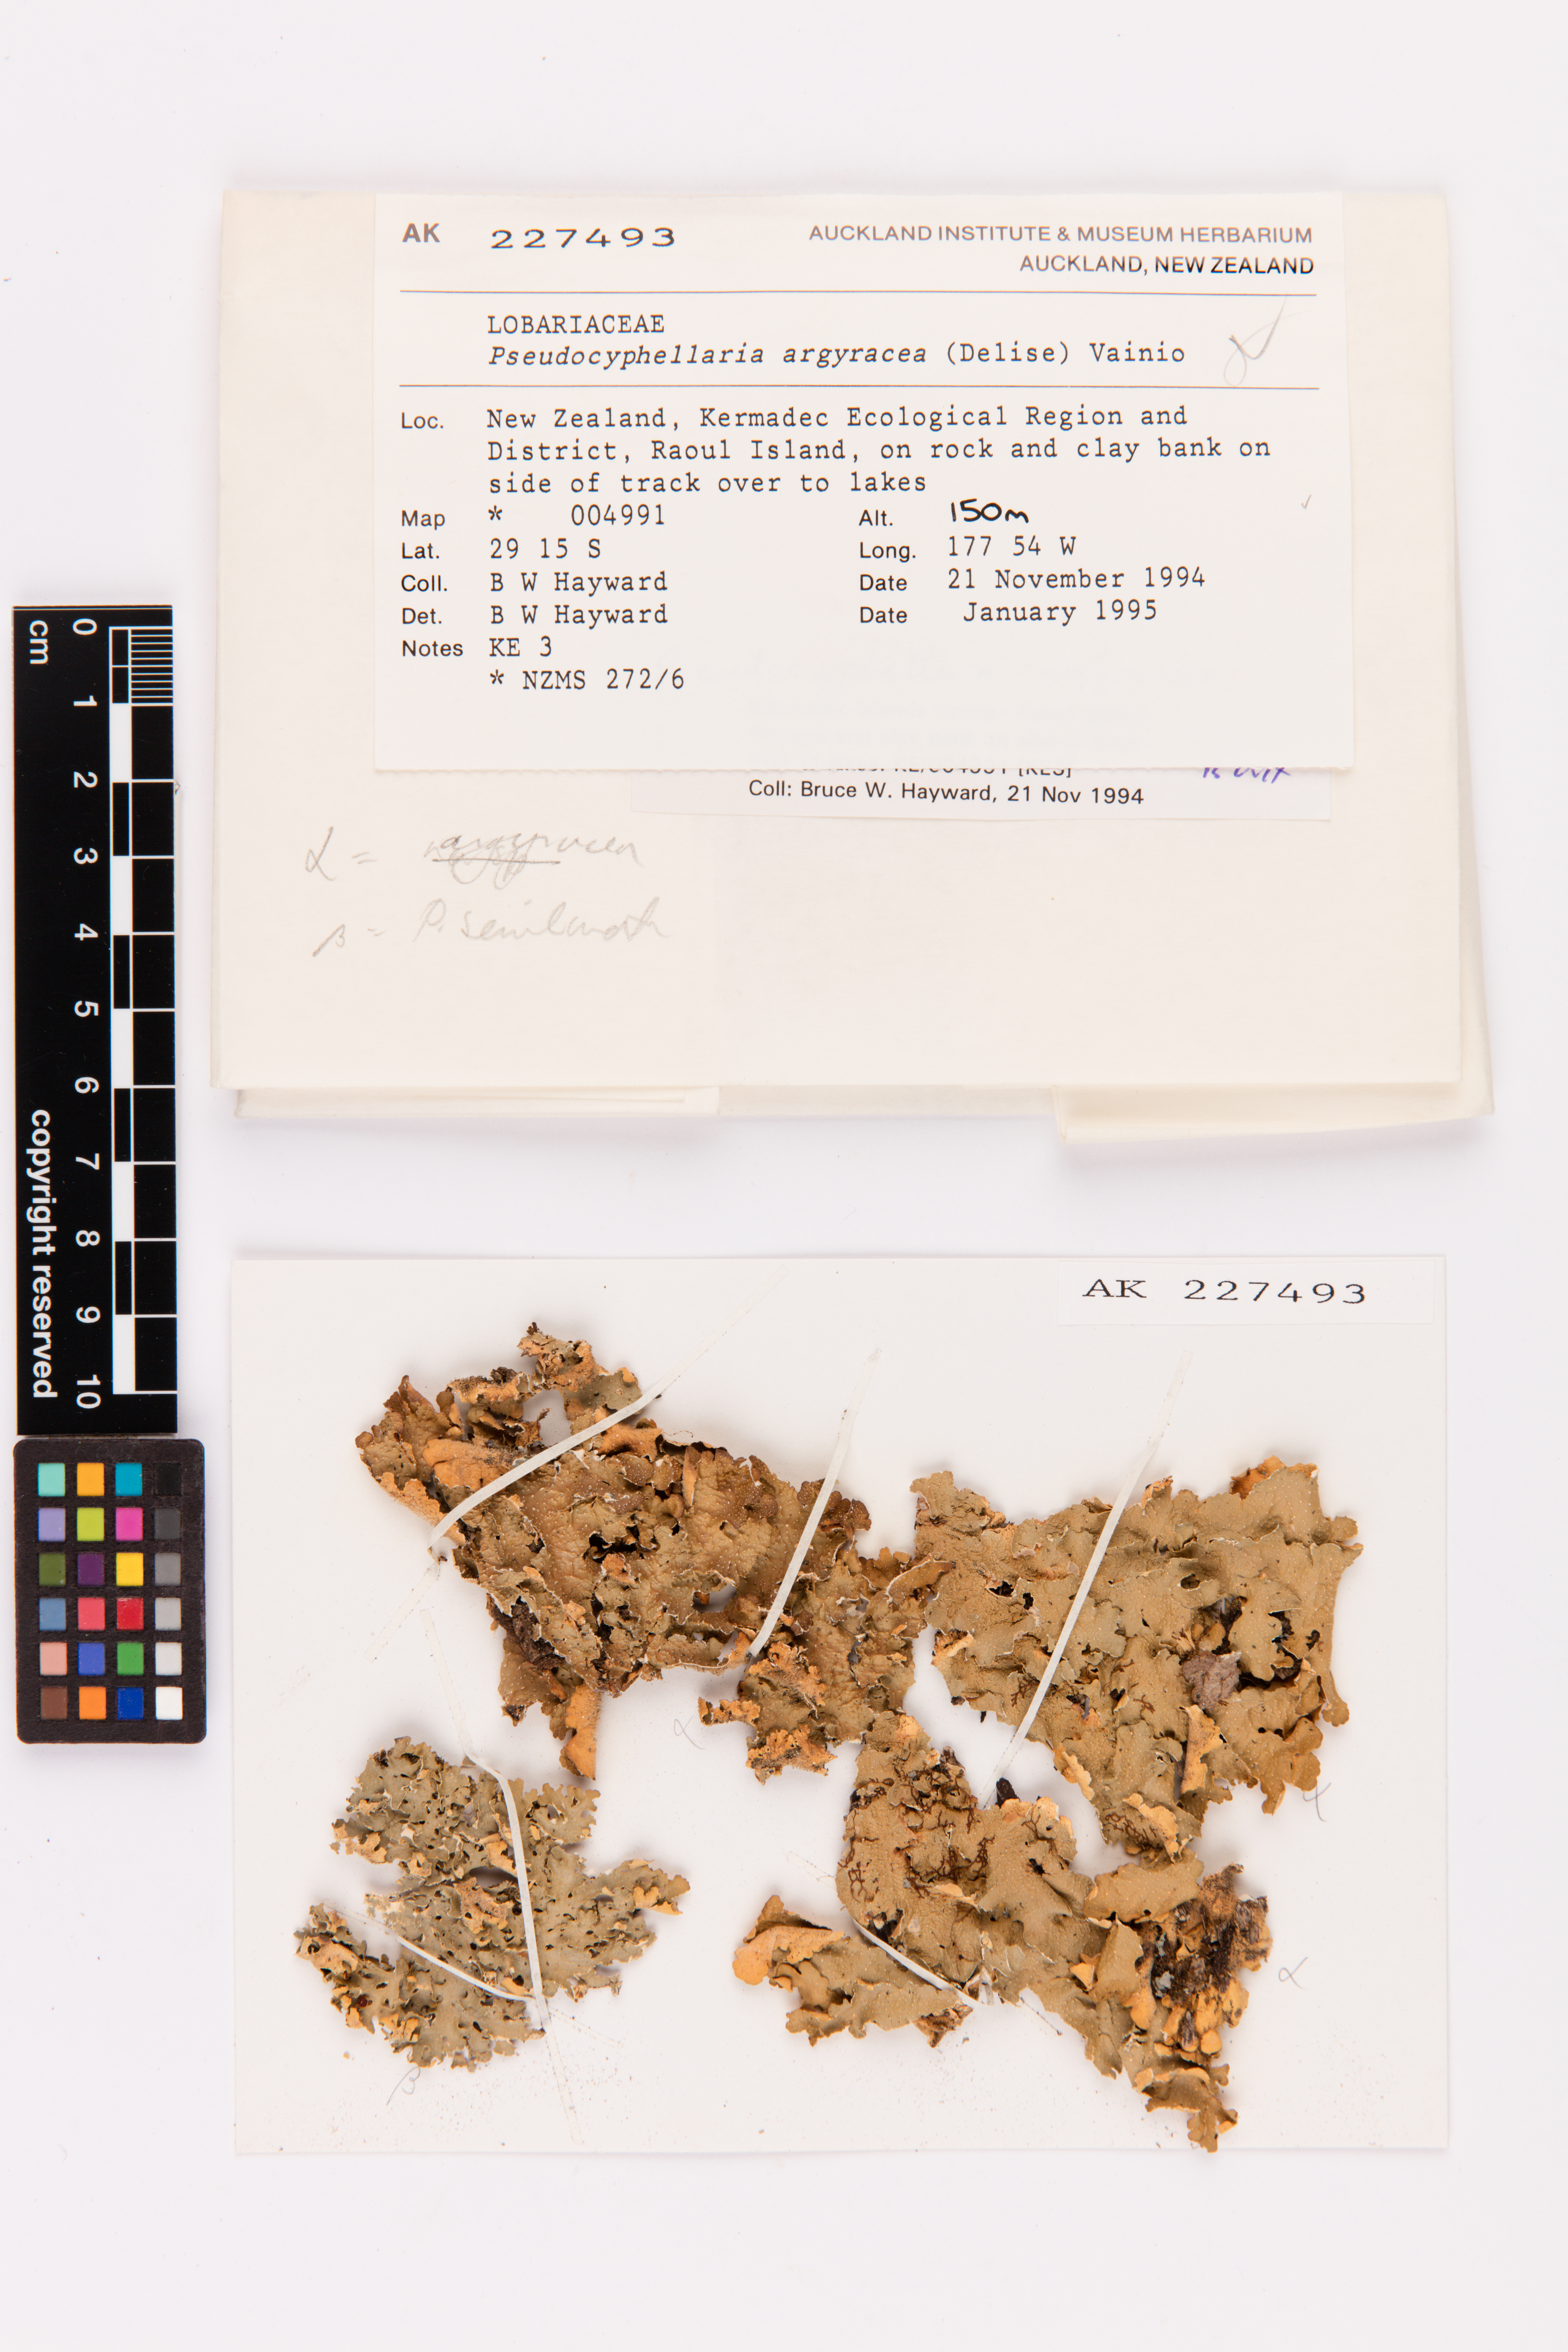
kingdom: Fungi
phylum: Ascomycota
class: Lecanoromycetes
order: Peltigerales
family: Lobariaceae
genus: Pseudocyphellaria
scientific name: Pseudocyphellaria argyracea
